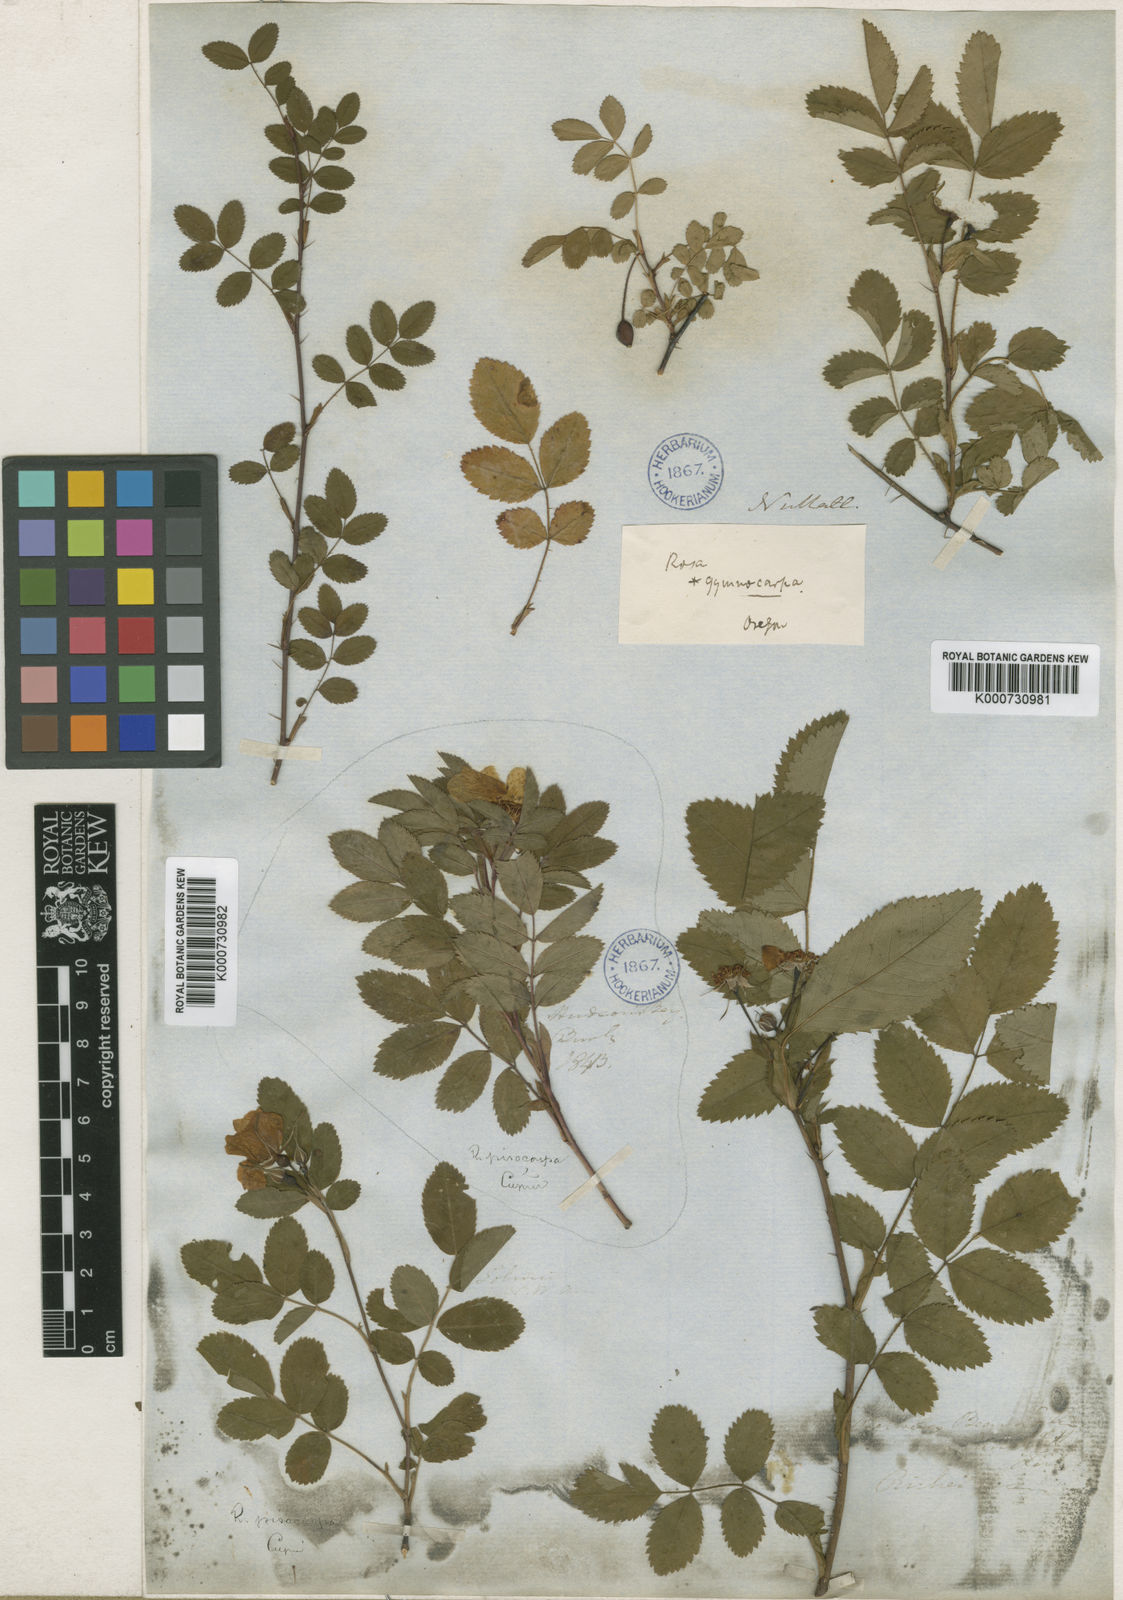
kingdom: Plantae
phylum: Tracheophyta
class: Magnoliopsida
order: Rosales
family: Rosaceae
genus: Rosa
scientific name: Rosa gymnocarpa
